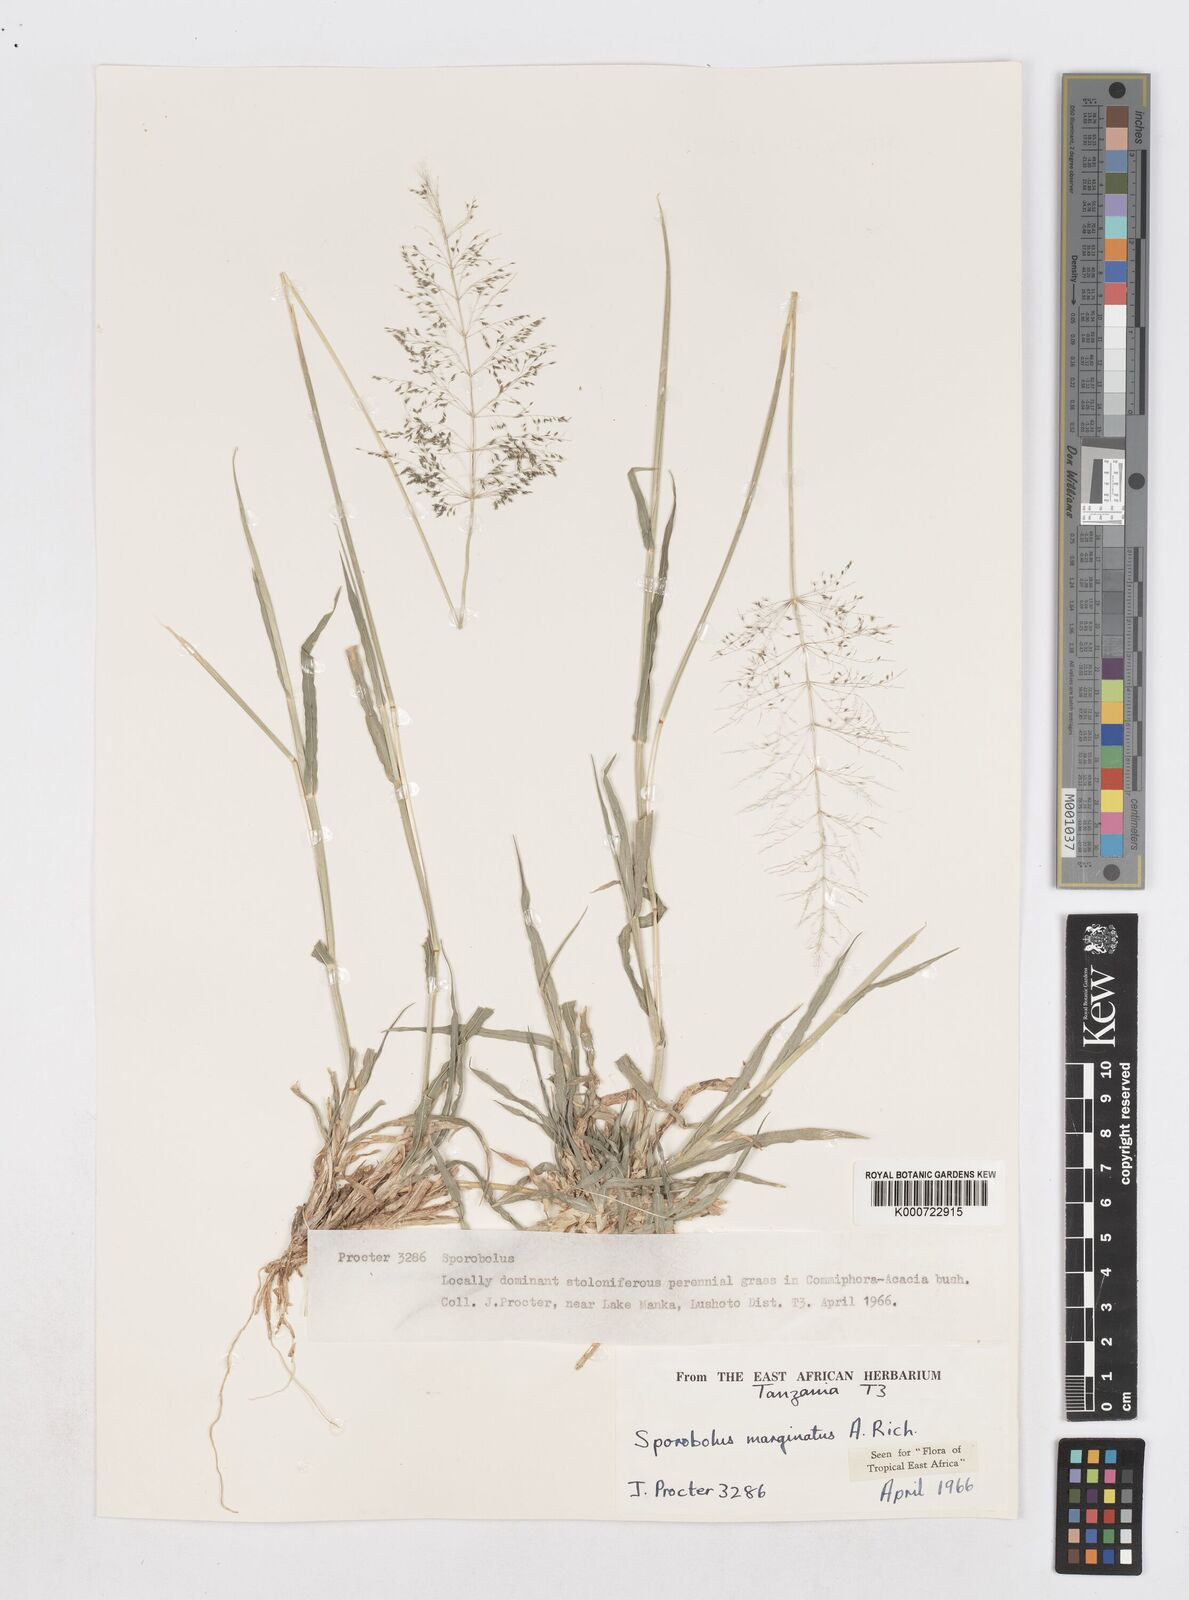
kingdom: Plantae
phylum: Tracheophyta
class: Liliopsida
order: Poales
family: Poaceae
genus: Sporobolus
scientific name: Sporobolus ioclados
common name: Pan dropseed
